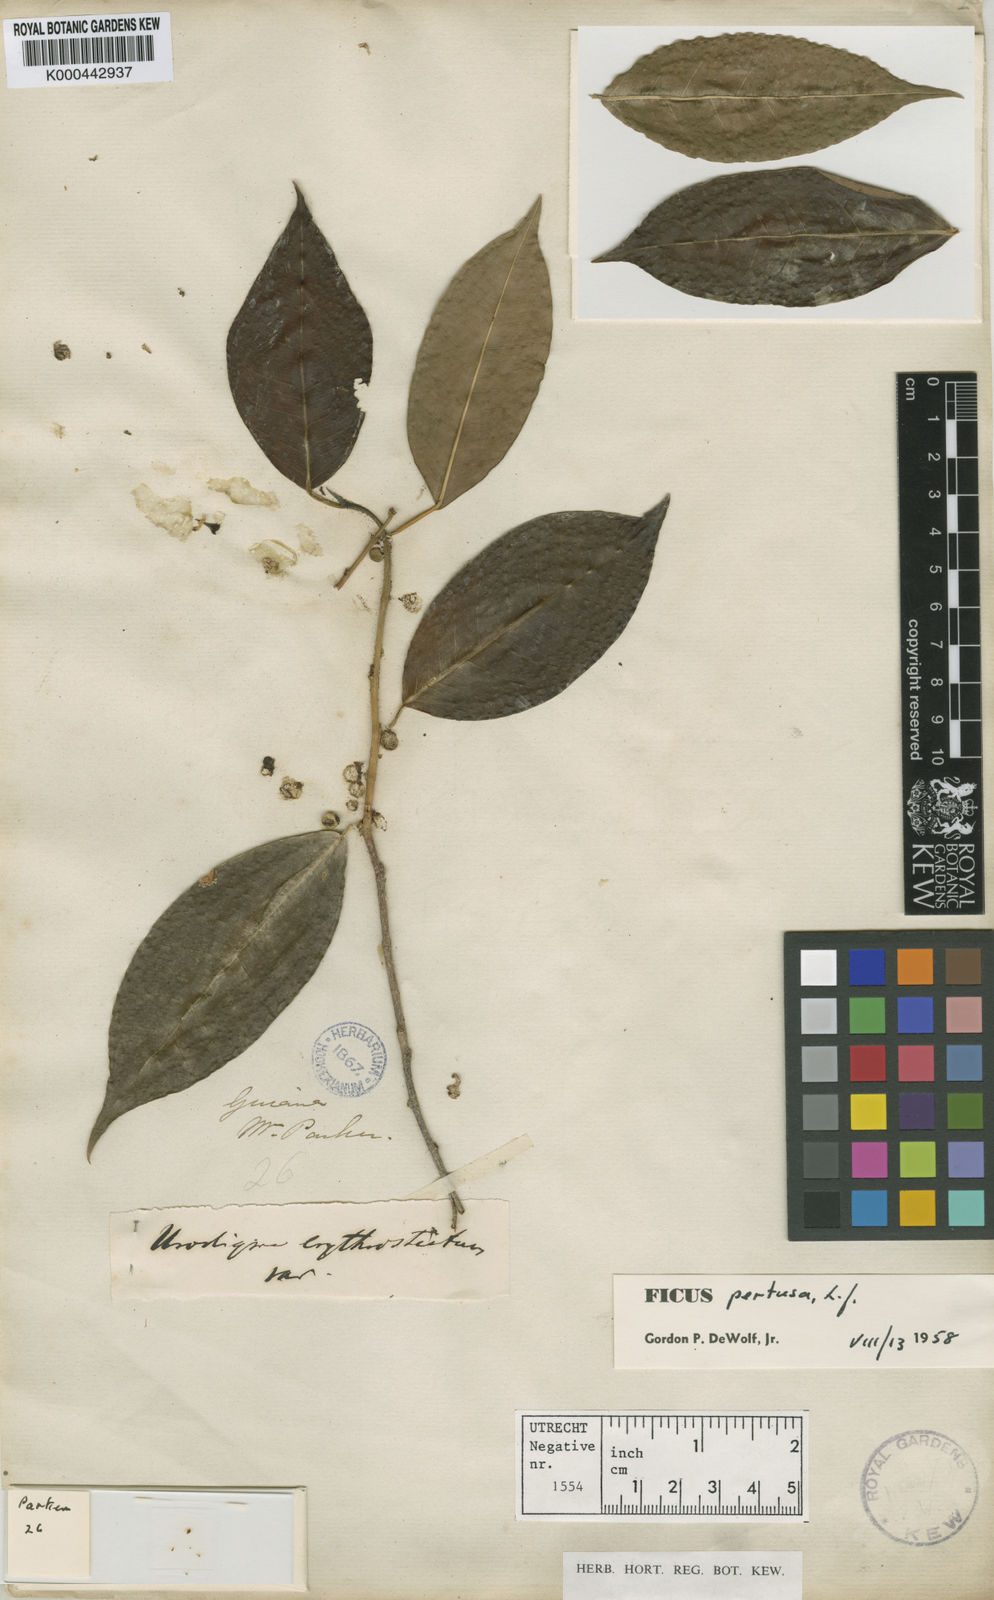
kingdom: Plantae
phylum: Tracheophyta
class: Magnoliopsida
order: Rosales
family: Moraceae
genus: Ficus
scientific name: Ficus pertusa
